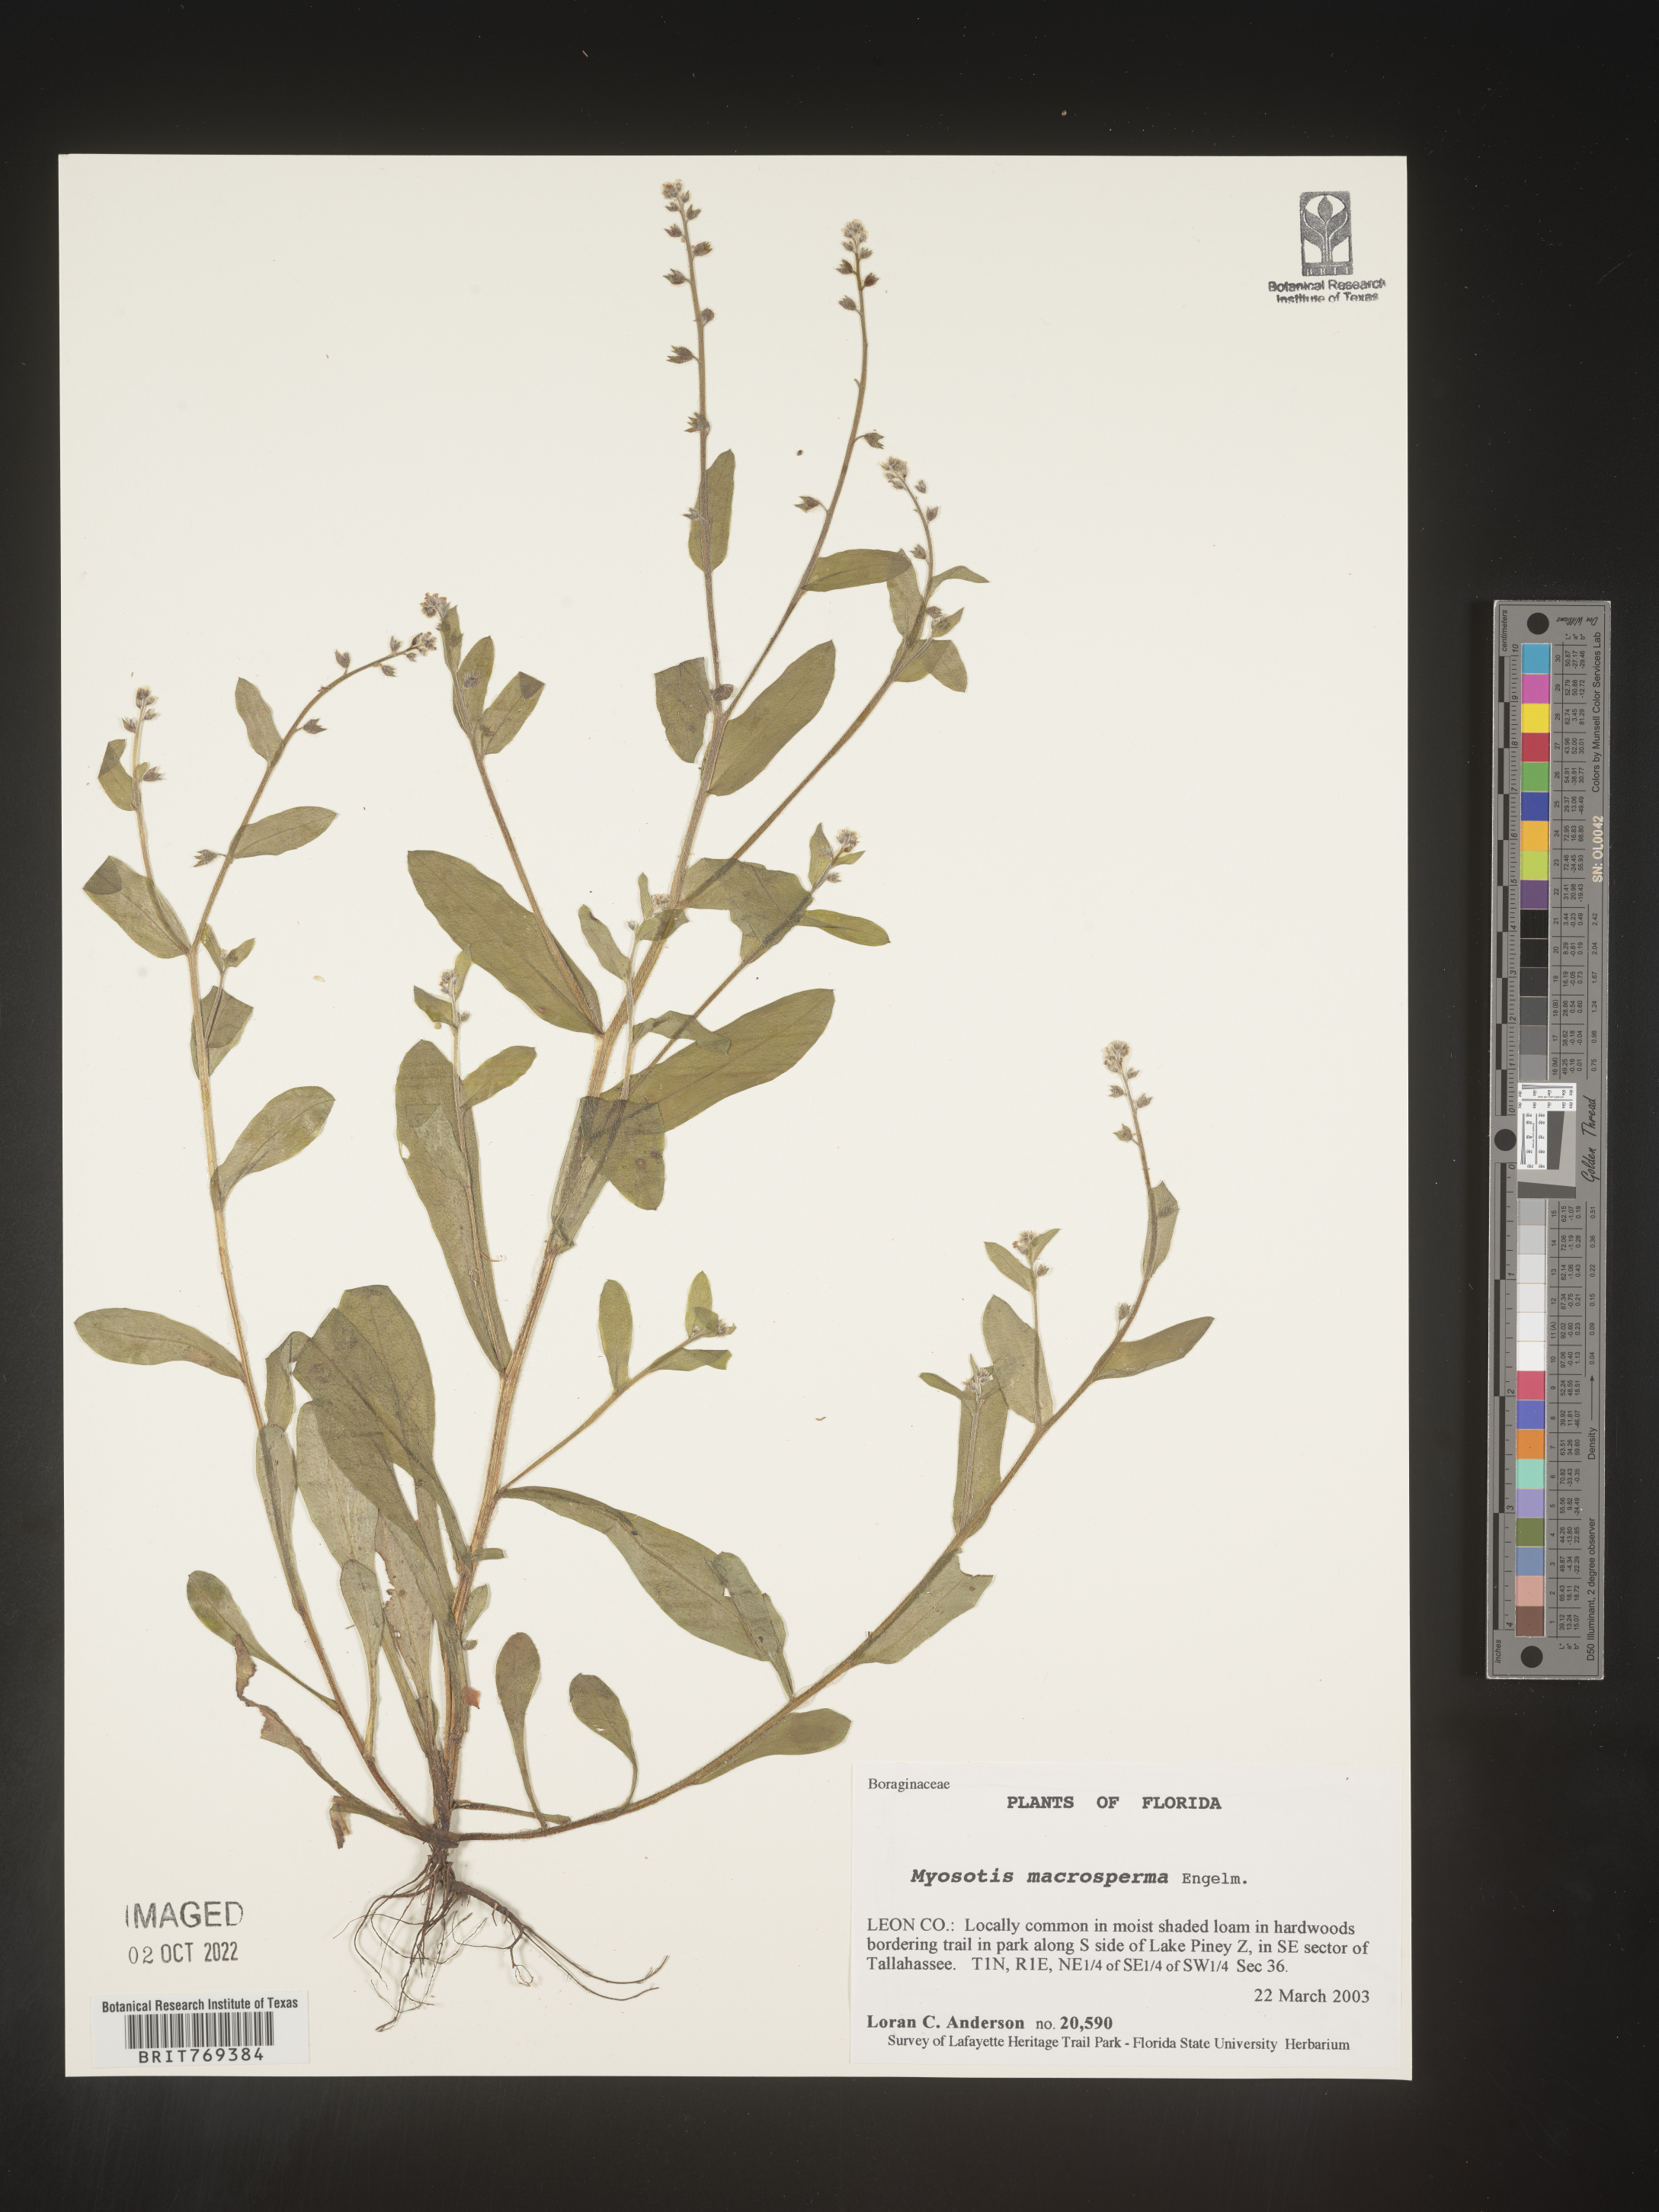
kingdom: Plantae
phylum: Tracheophyta
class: Magnoliopsida
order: Boraginales
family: Boraginaceae
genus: Myosotis
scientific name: Myosotis macrosperma
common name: Large-seed forget-me-not
